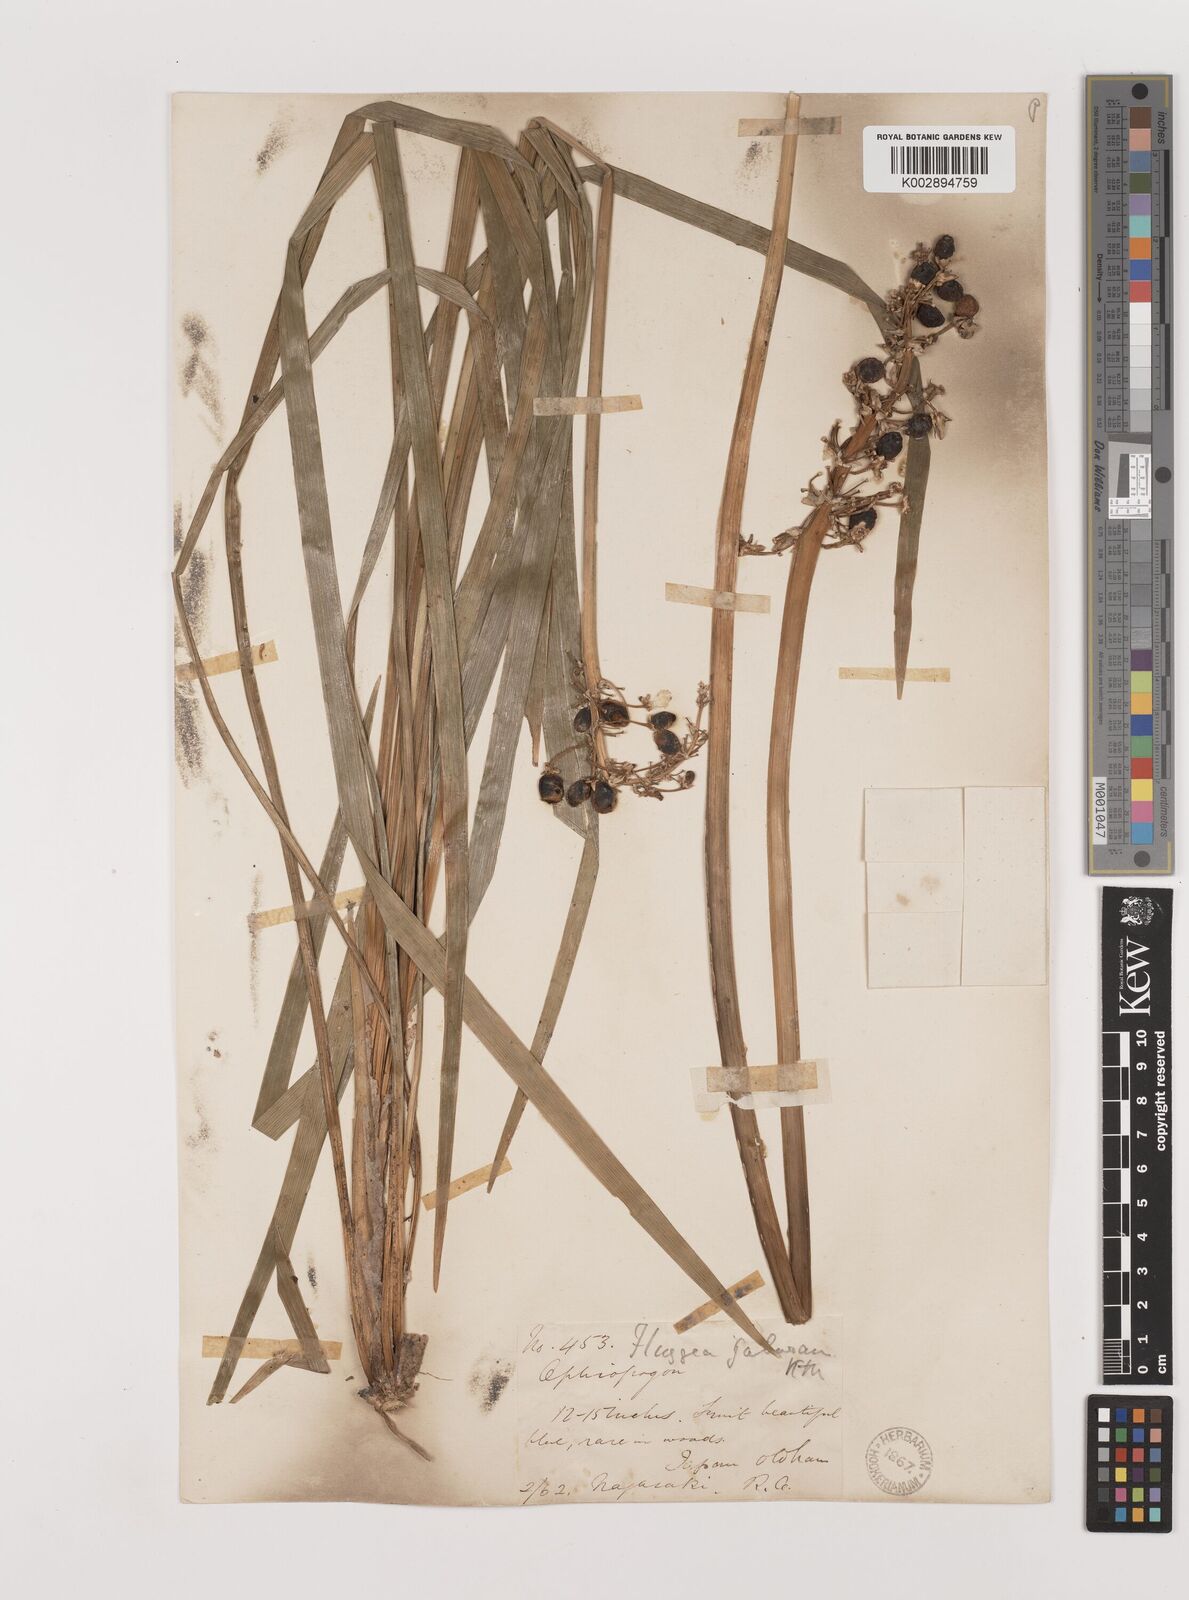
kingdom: Plantae
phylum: Tracheophyta
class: Liliopsida
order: Asparagales
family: Asparagaceae
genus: Ophiopogon
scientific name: Ophiopogon jaburan
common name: Lilyturf
